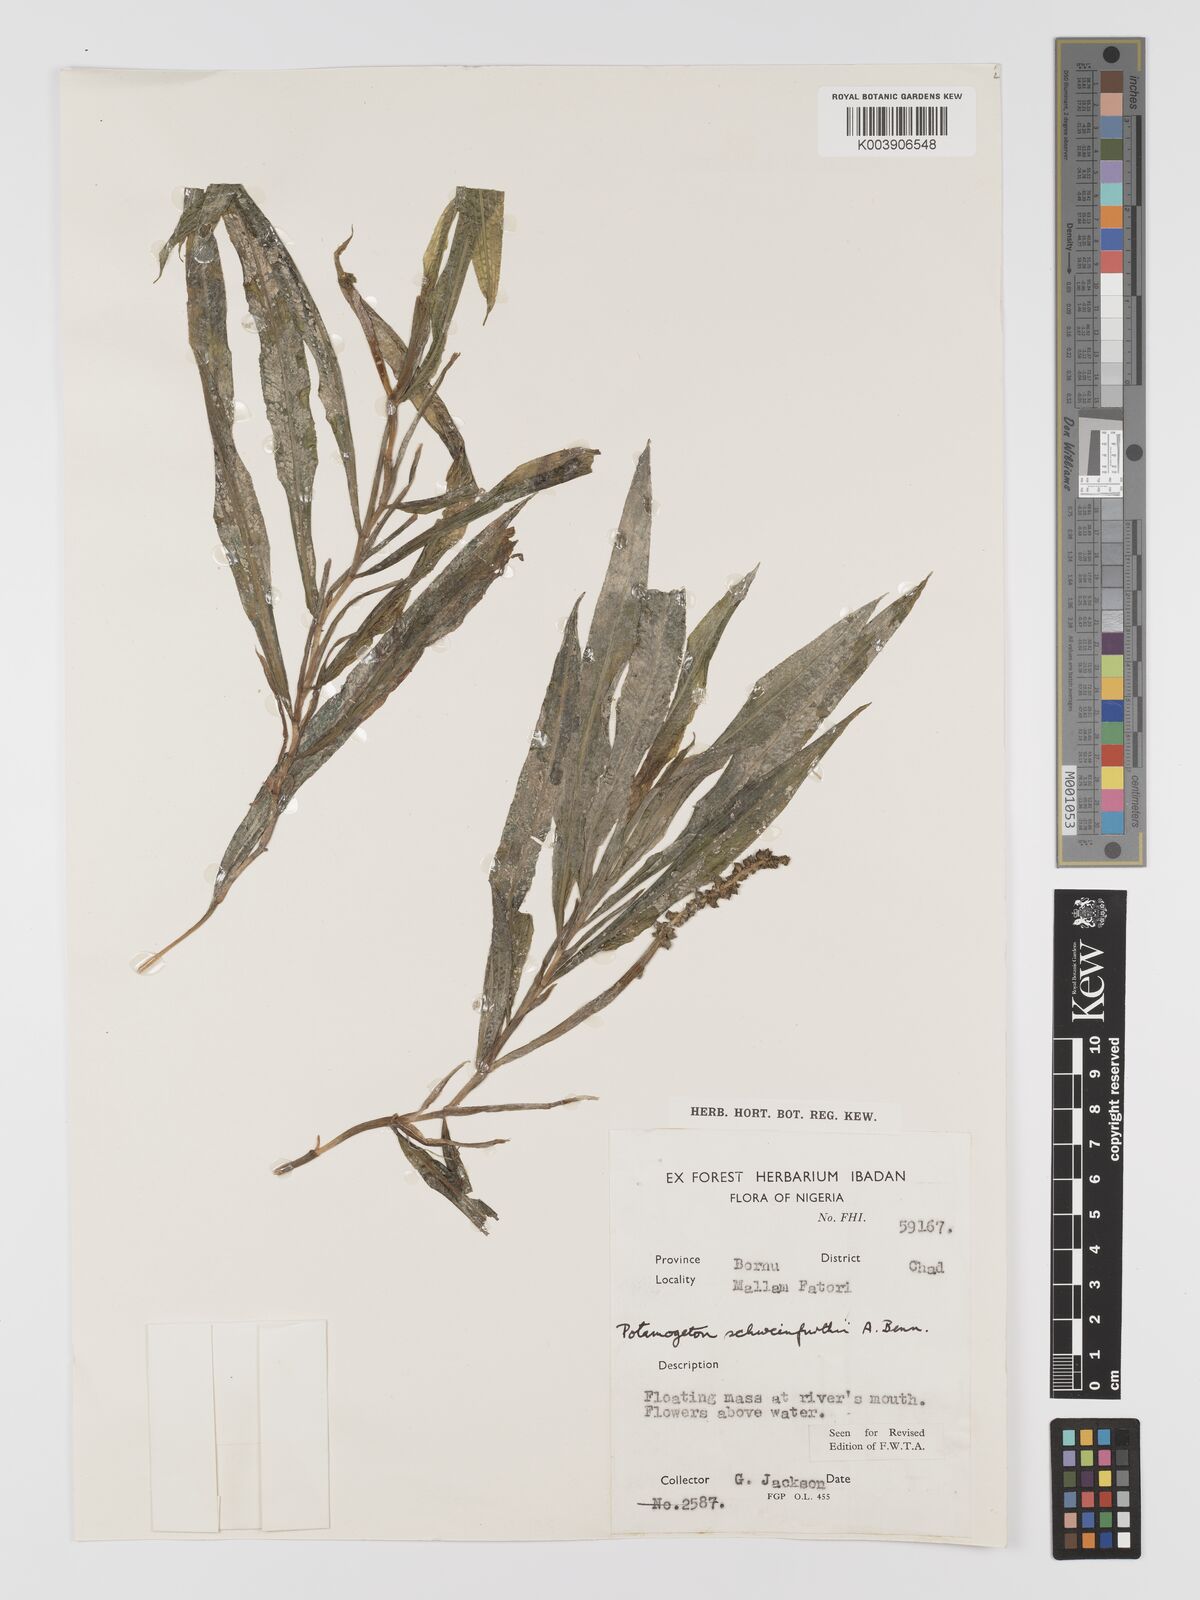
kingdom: Plantae
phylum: Tracheophyta
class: Liliopsida
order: Alismatales
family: Potamogetonaceae
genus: Potamogeton
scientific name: Potamogeton schweinfurthii
